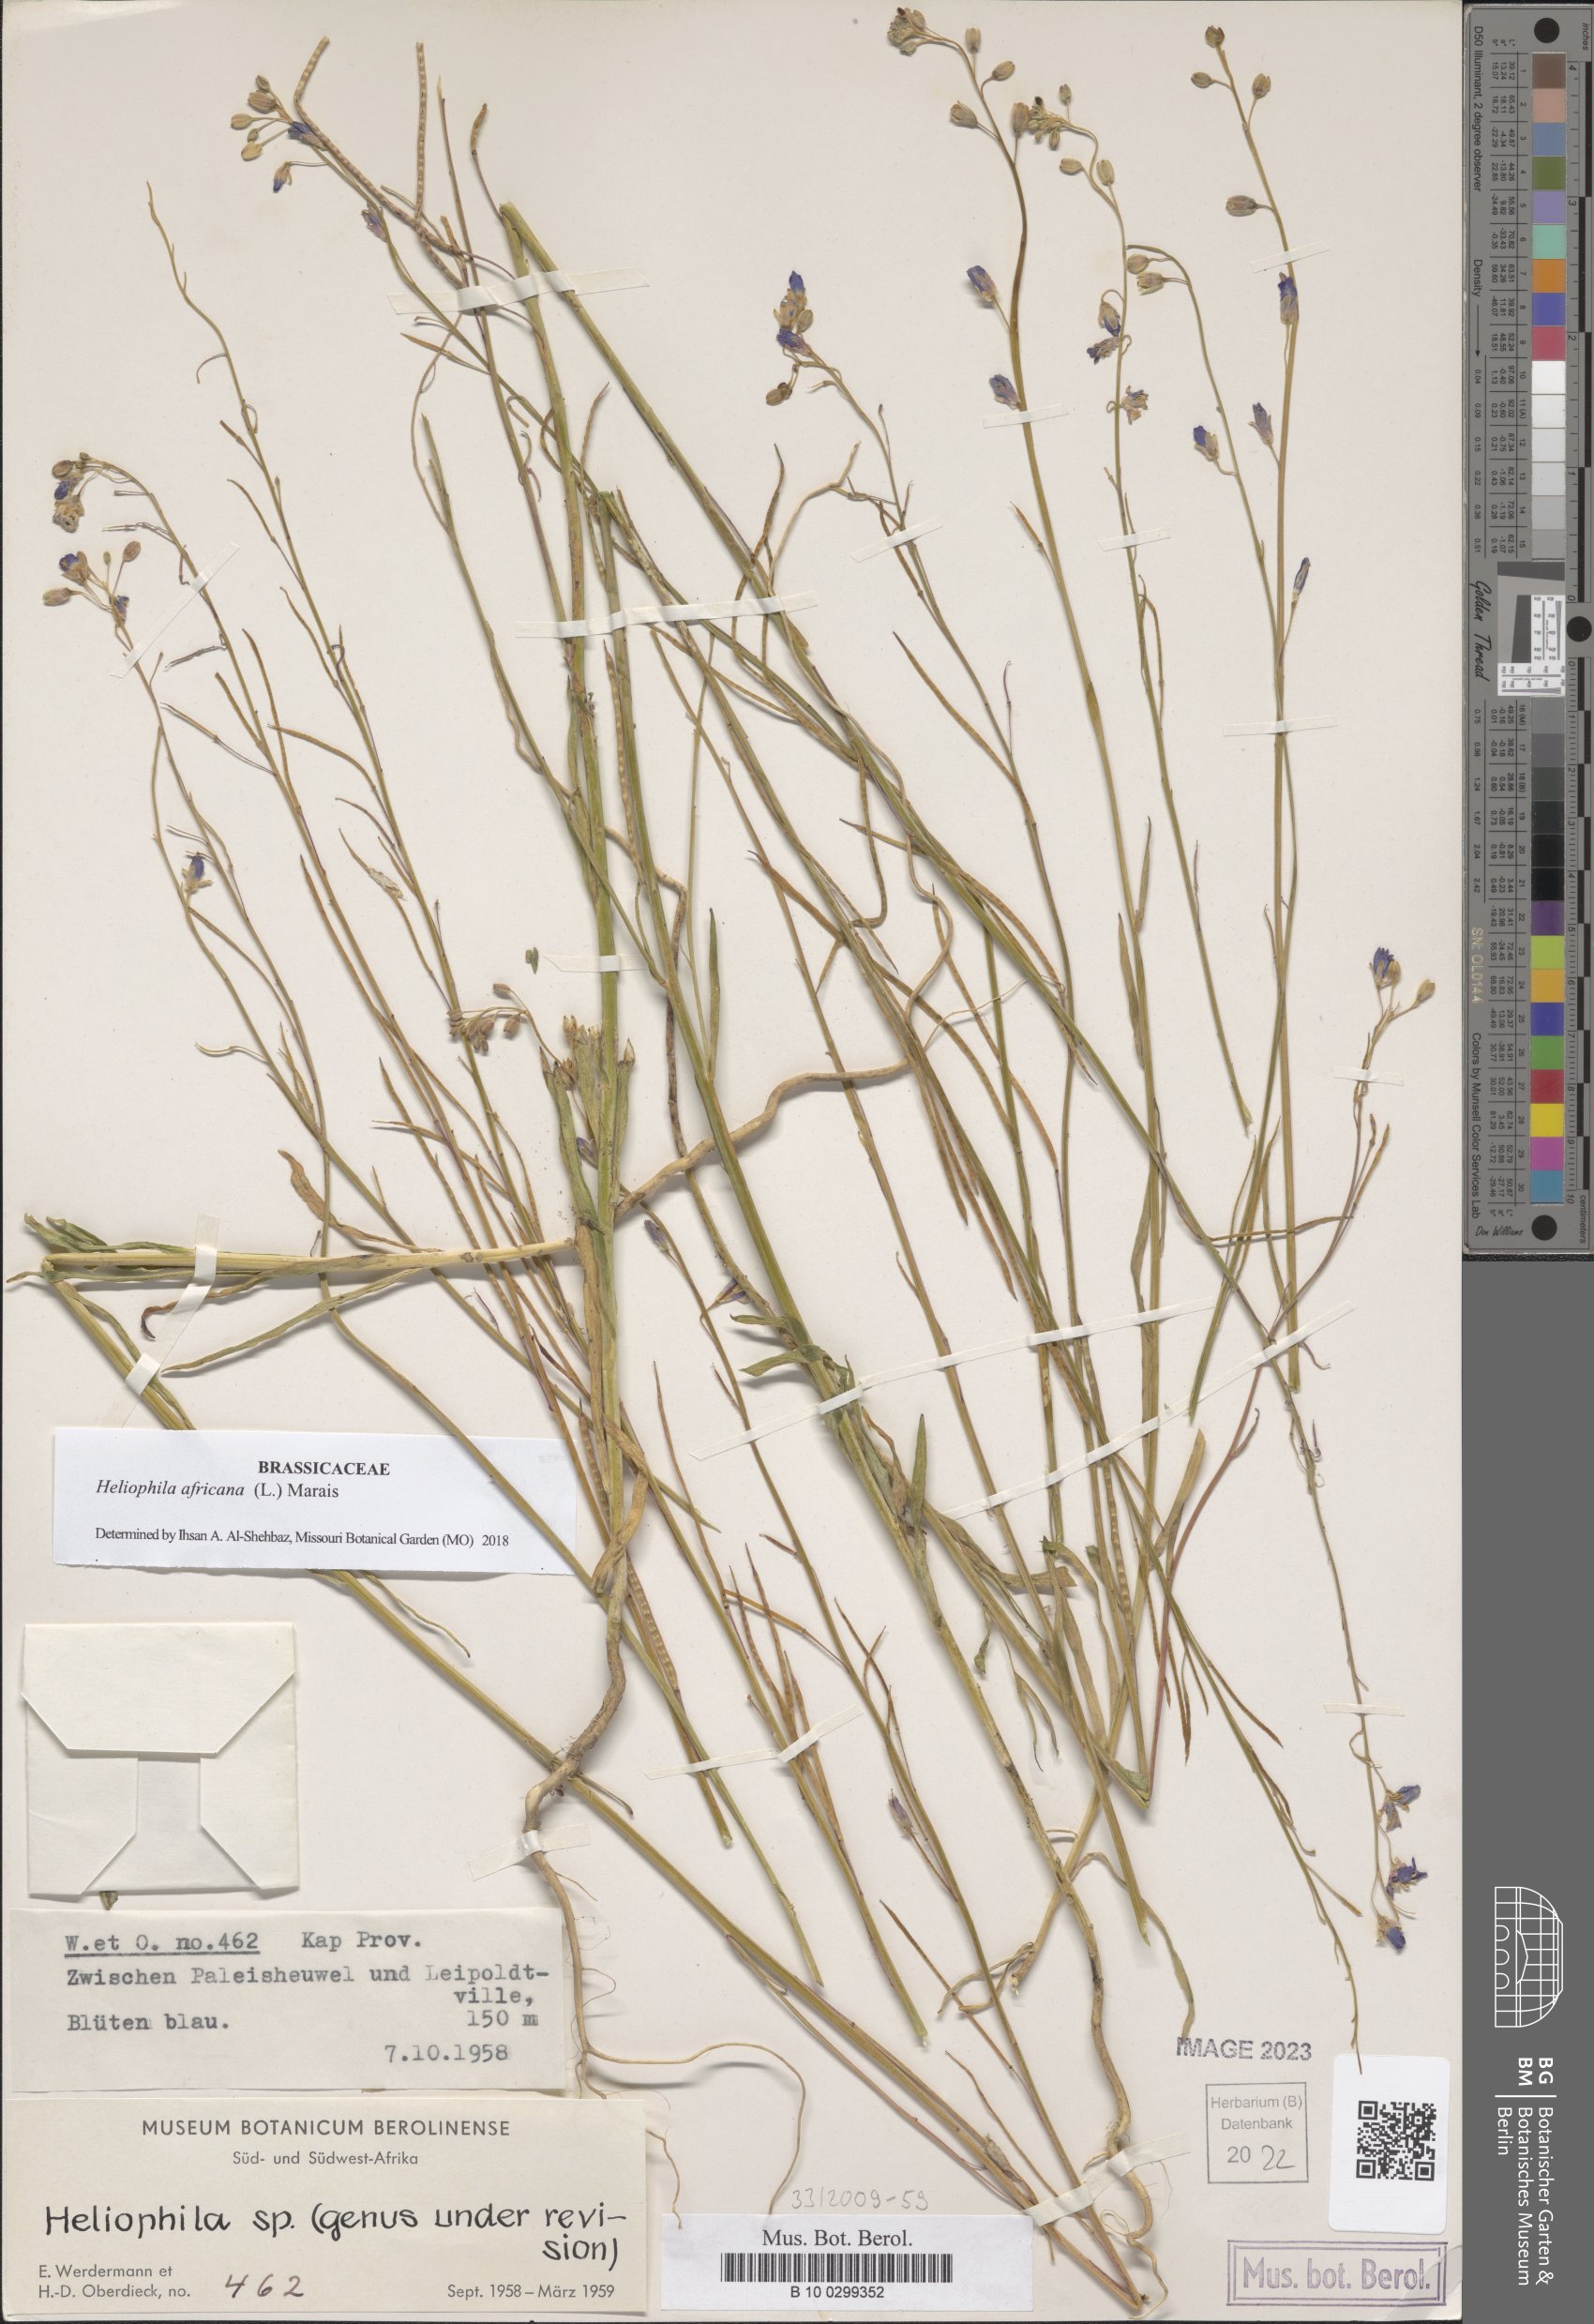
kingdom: Plantae
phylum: Tracheophyta
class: Magnoliopsida
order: Brassicales
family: Brassicaceae
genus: Heliophila
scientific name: Heliophila africana
